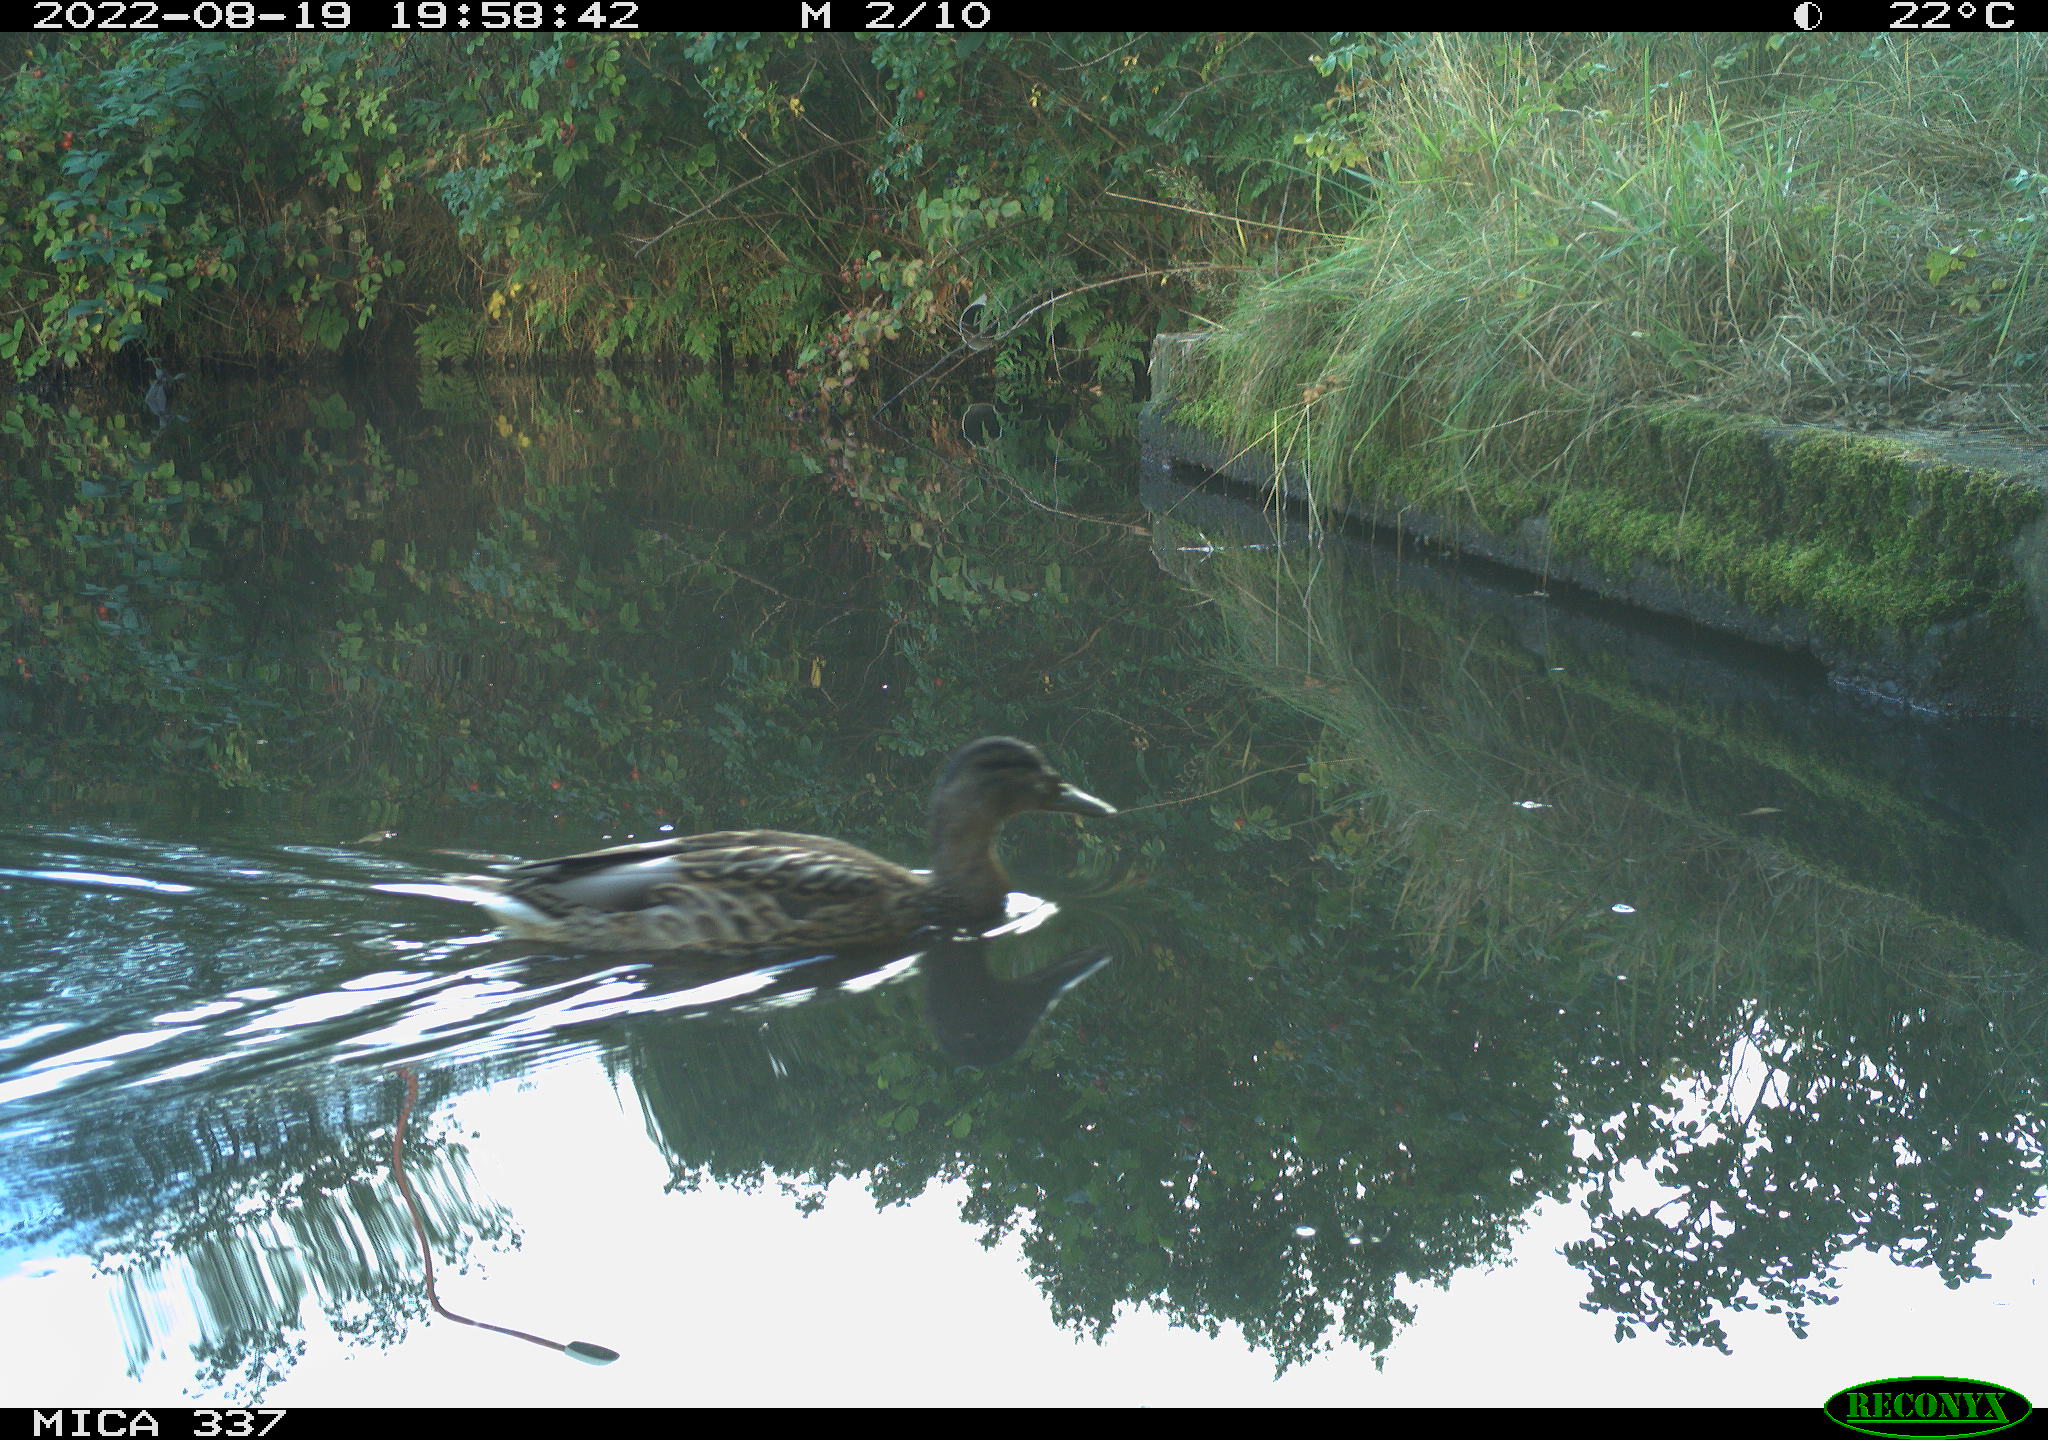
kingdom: Animalia
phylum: Chordata
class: Aves
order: Anseriformes
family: Anatidae
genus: Anas
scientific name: Anas platyrhynchos
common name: Mallard
